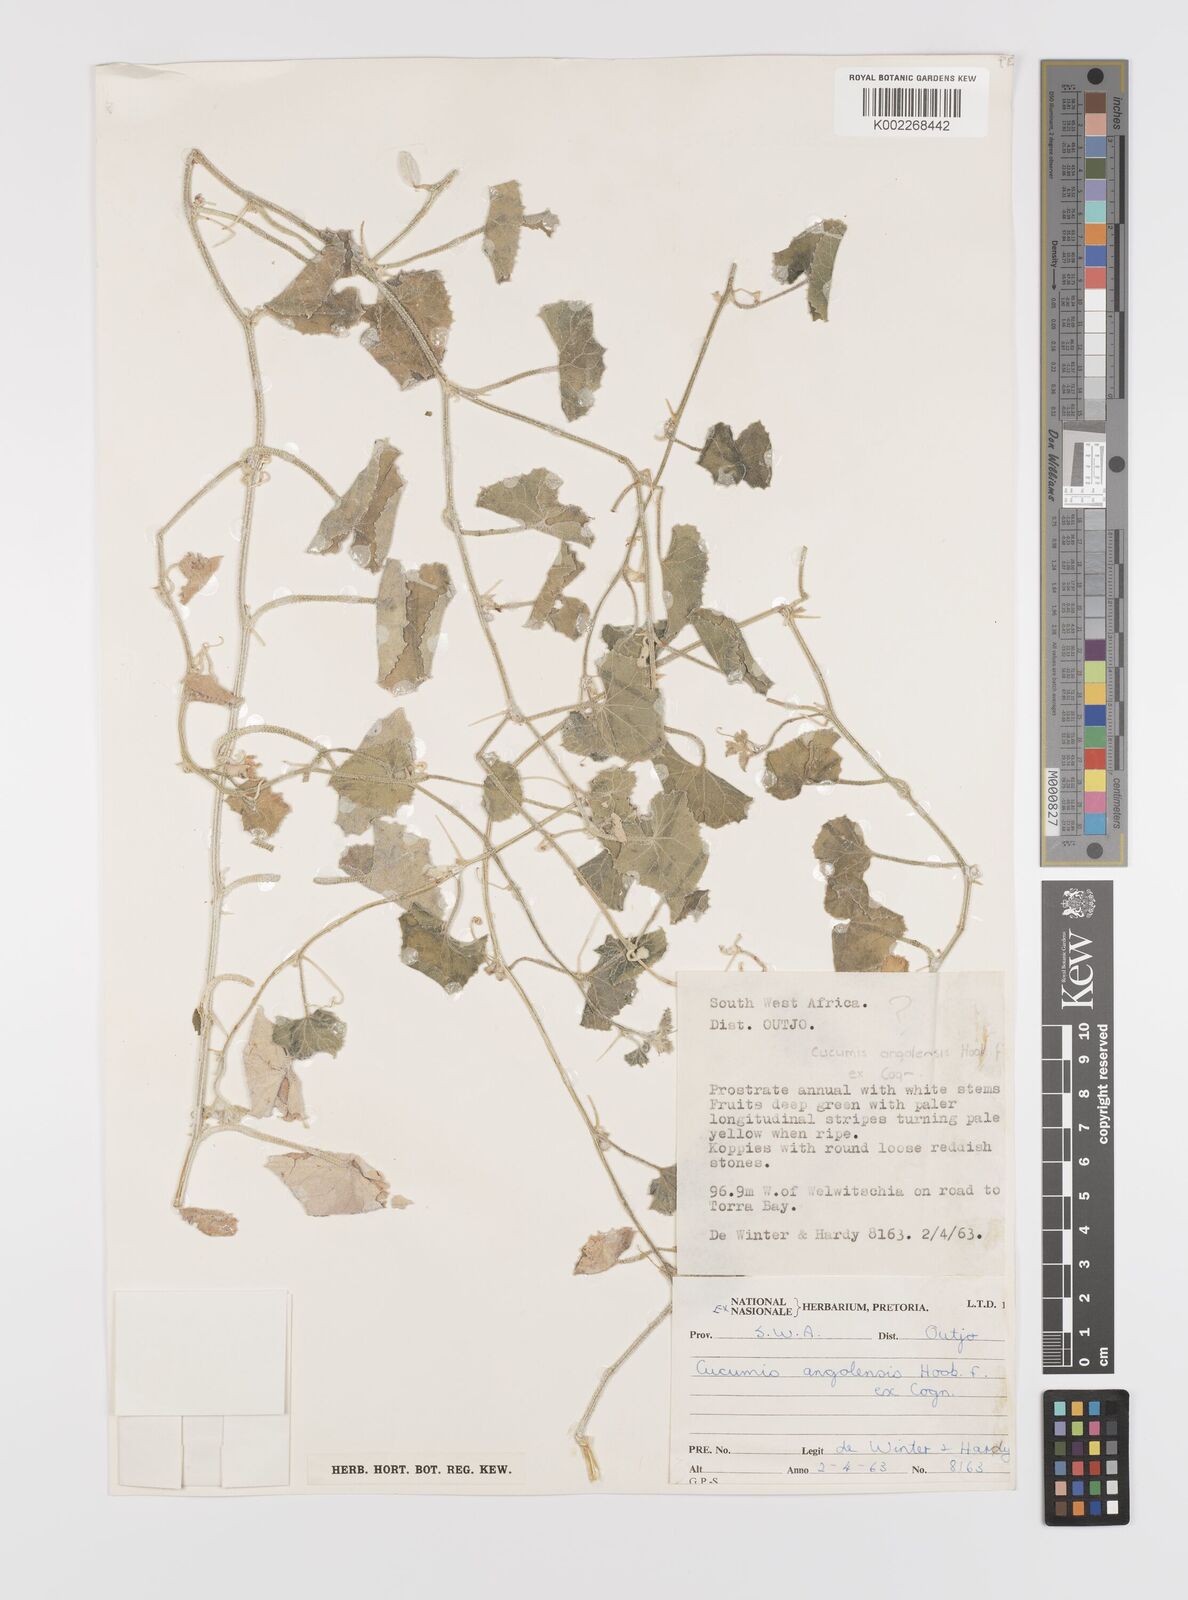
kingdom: Plantae
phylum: Tracheophyta
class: Magnoliopsida
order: Cucurbitales
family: Cucurbitaceae
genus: Cucumis
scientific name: Cucumis sagittatus
